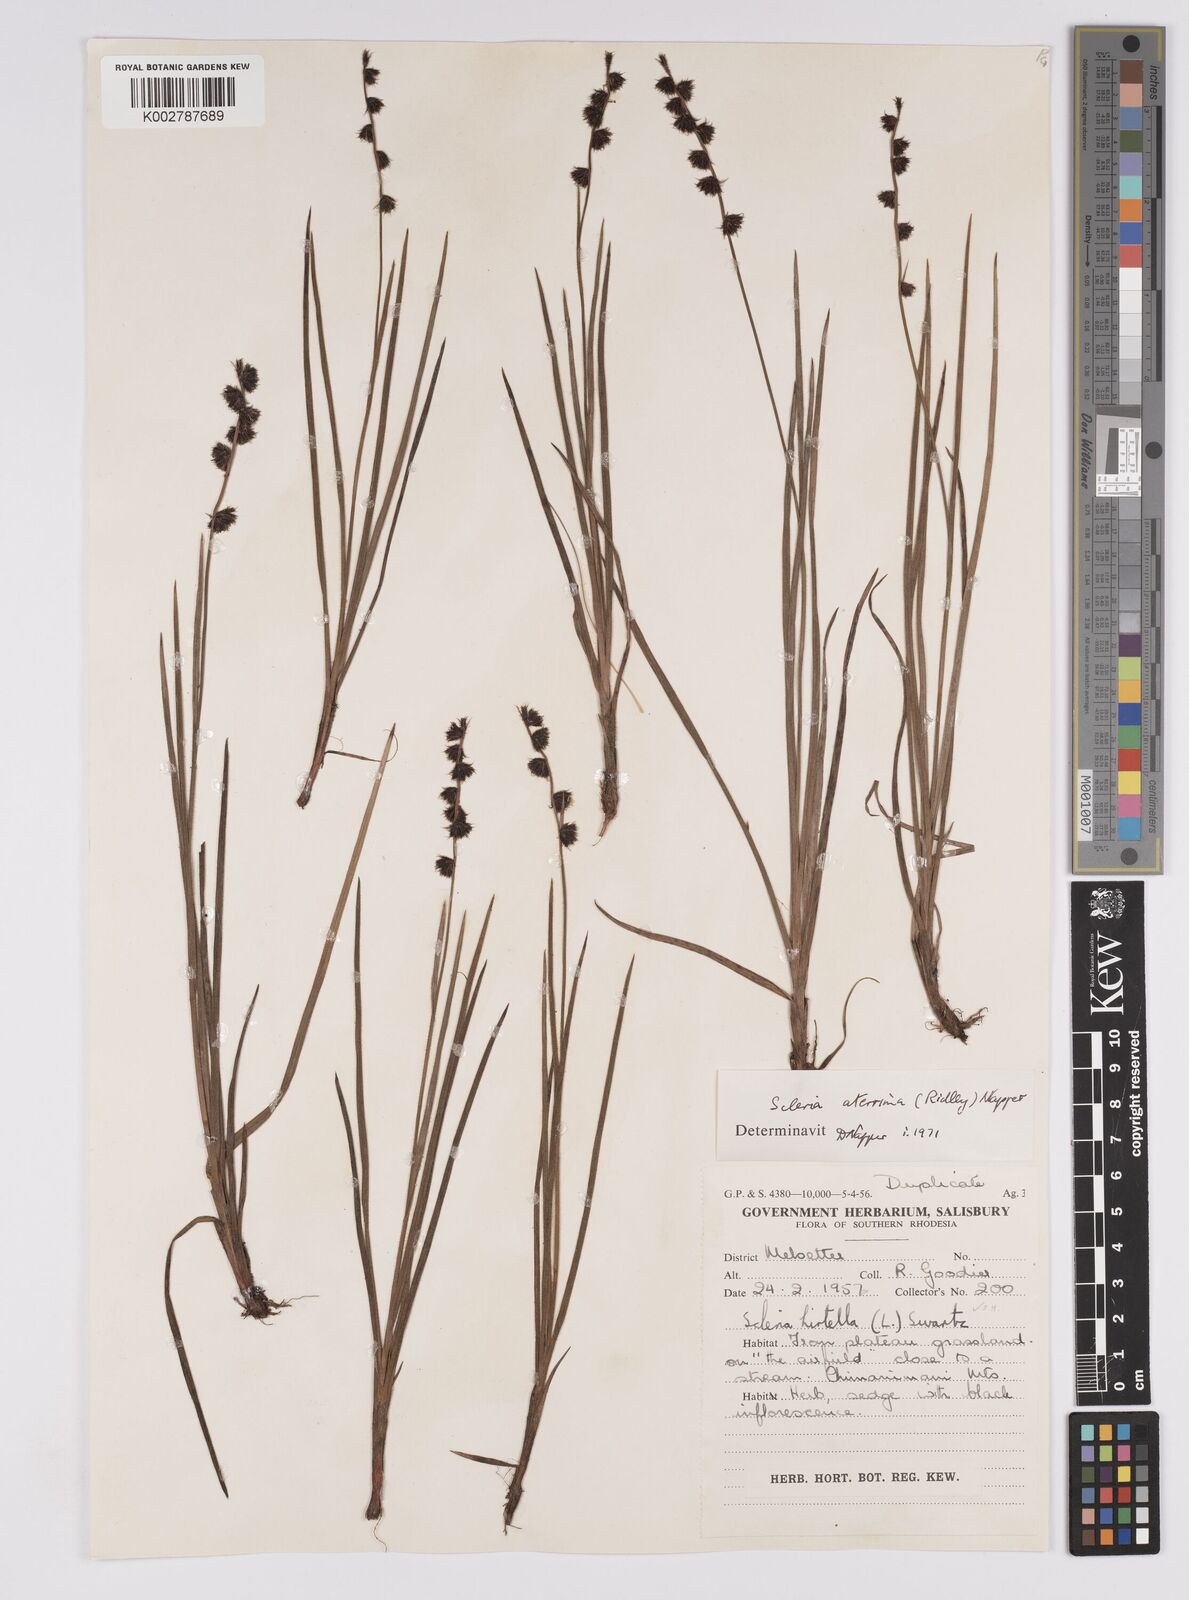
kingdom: Plantae
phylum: Tracheophyta
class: Liliopsida
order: Poales
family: Cyperaceae
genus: Scleria
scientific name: Scleria catophylla
